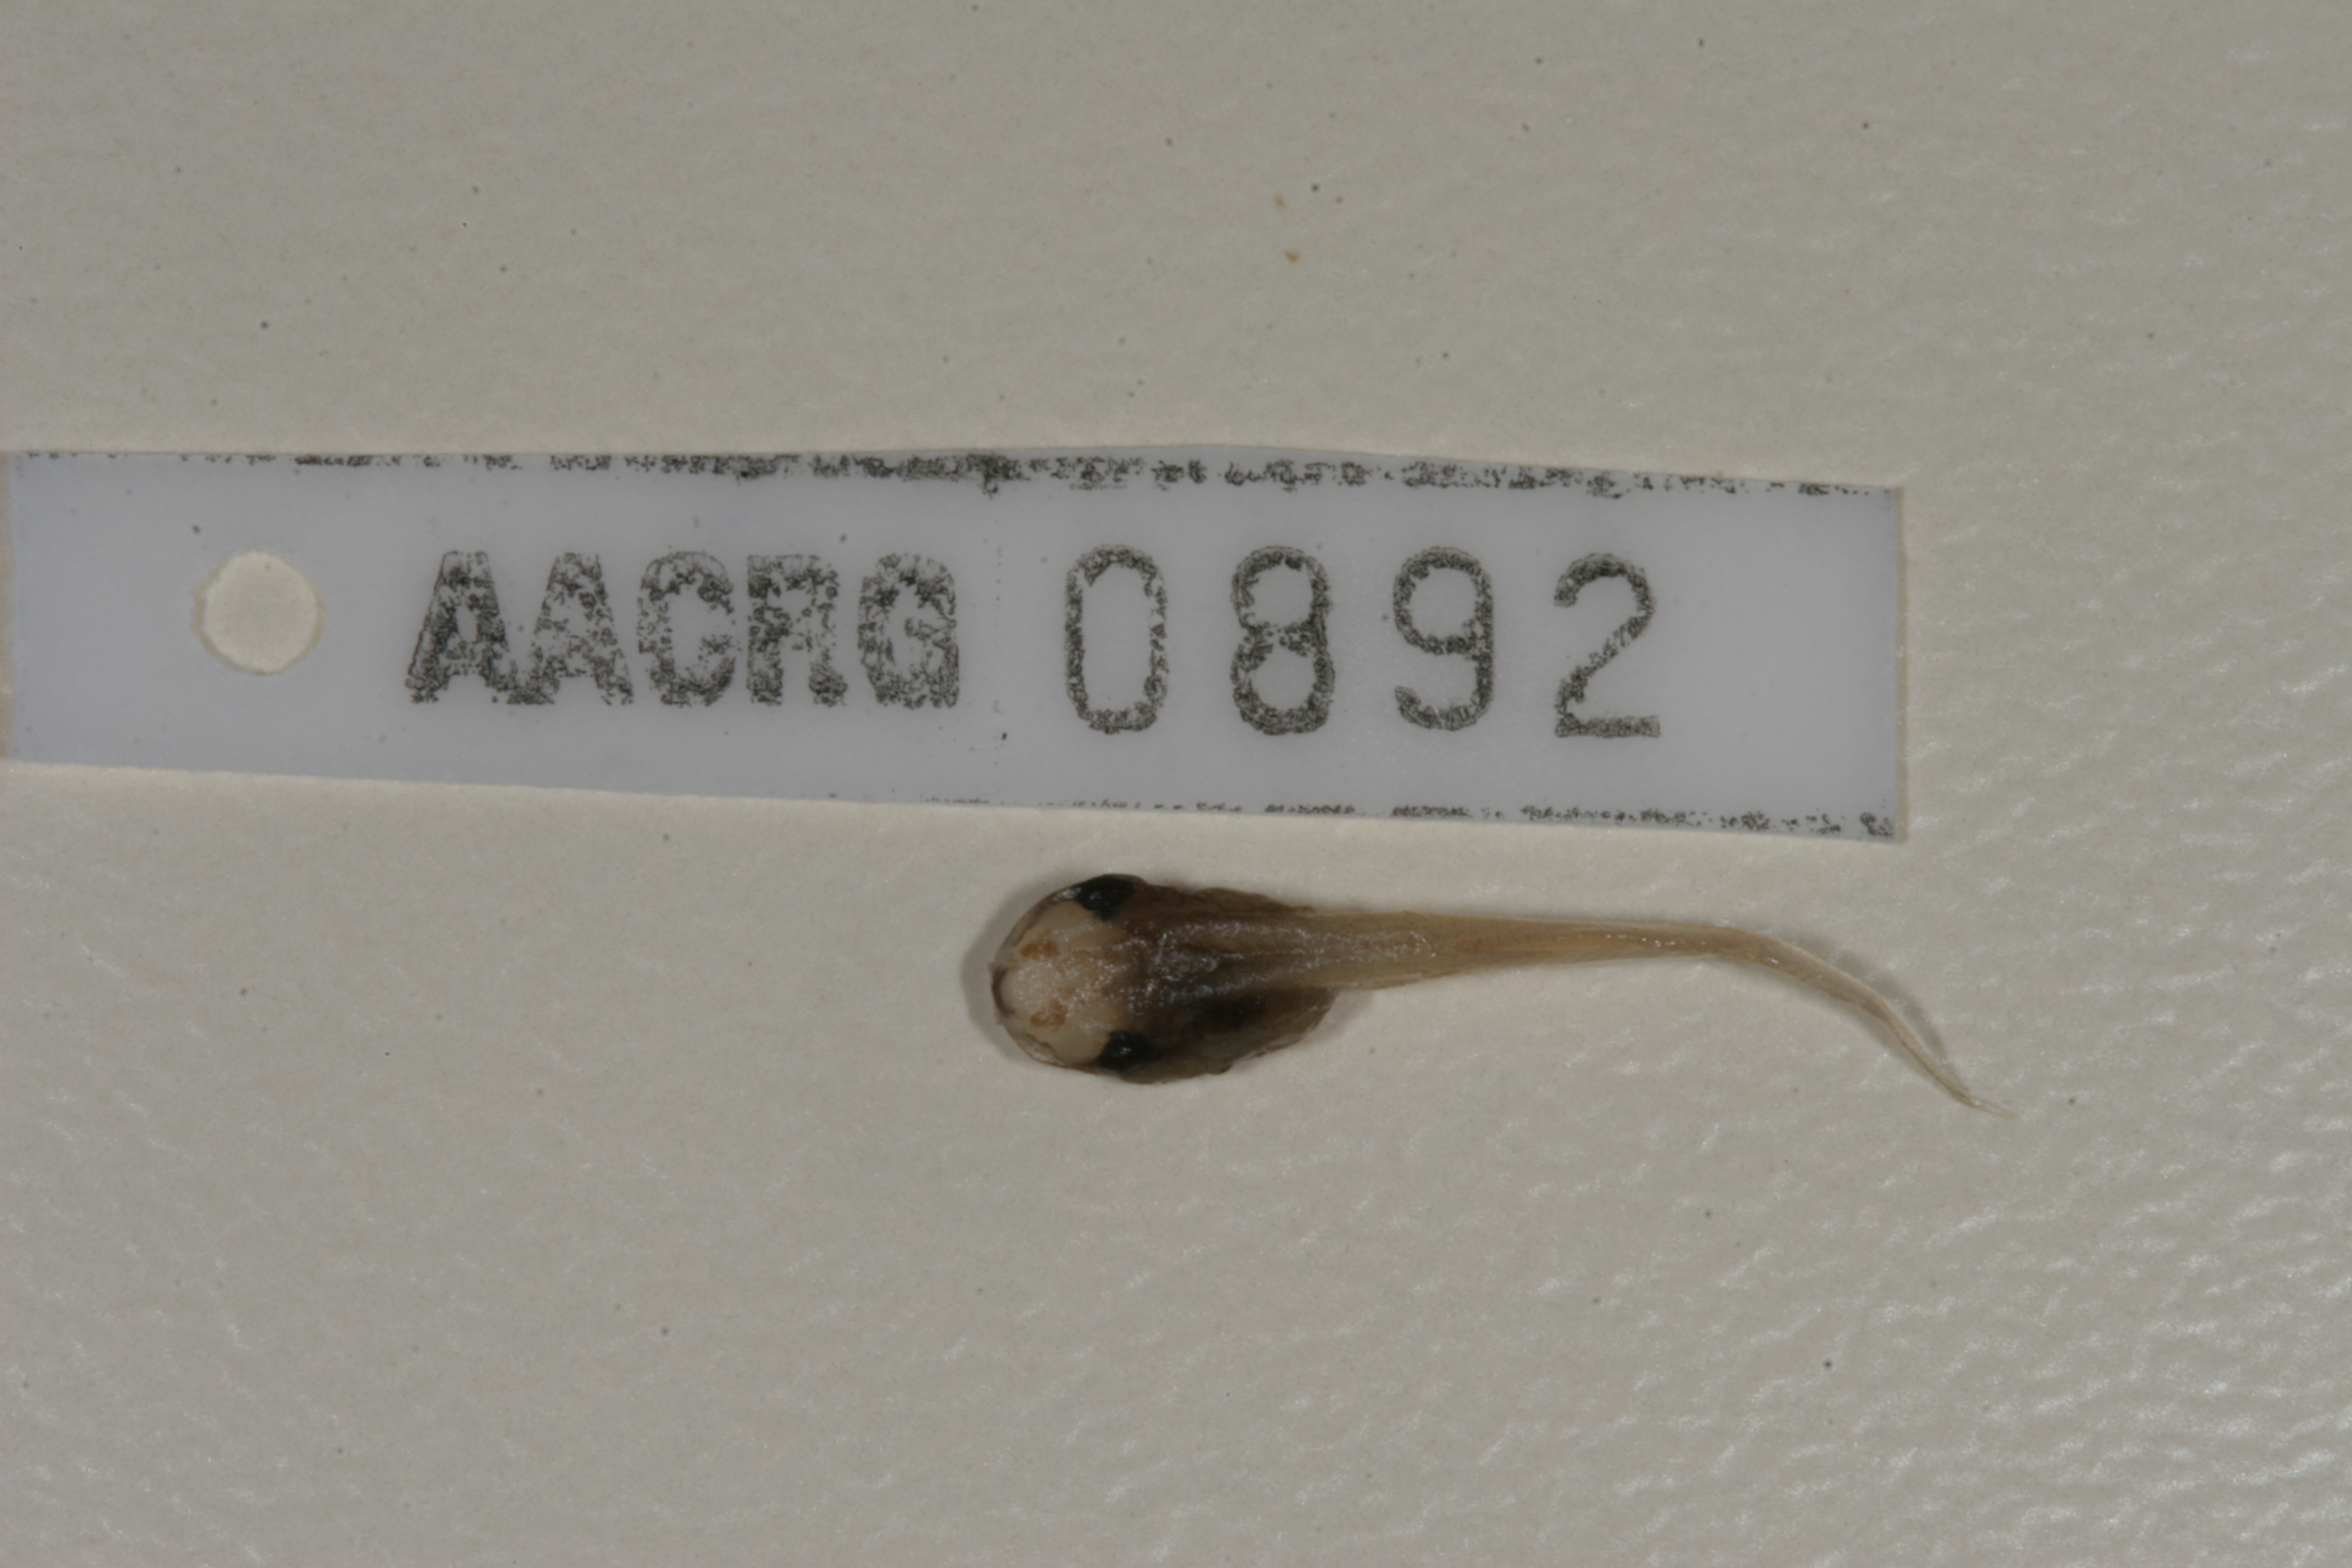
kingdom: Animalia
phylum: Chordata
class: Amphibia
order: Anura
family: Hyperoliidae
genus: Afrixalus
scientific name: Afrixalus delicatus
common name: Delicate leaf-folding frog
